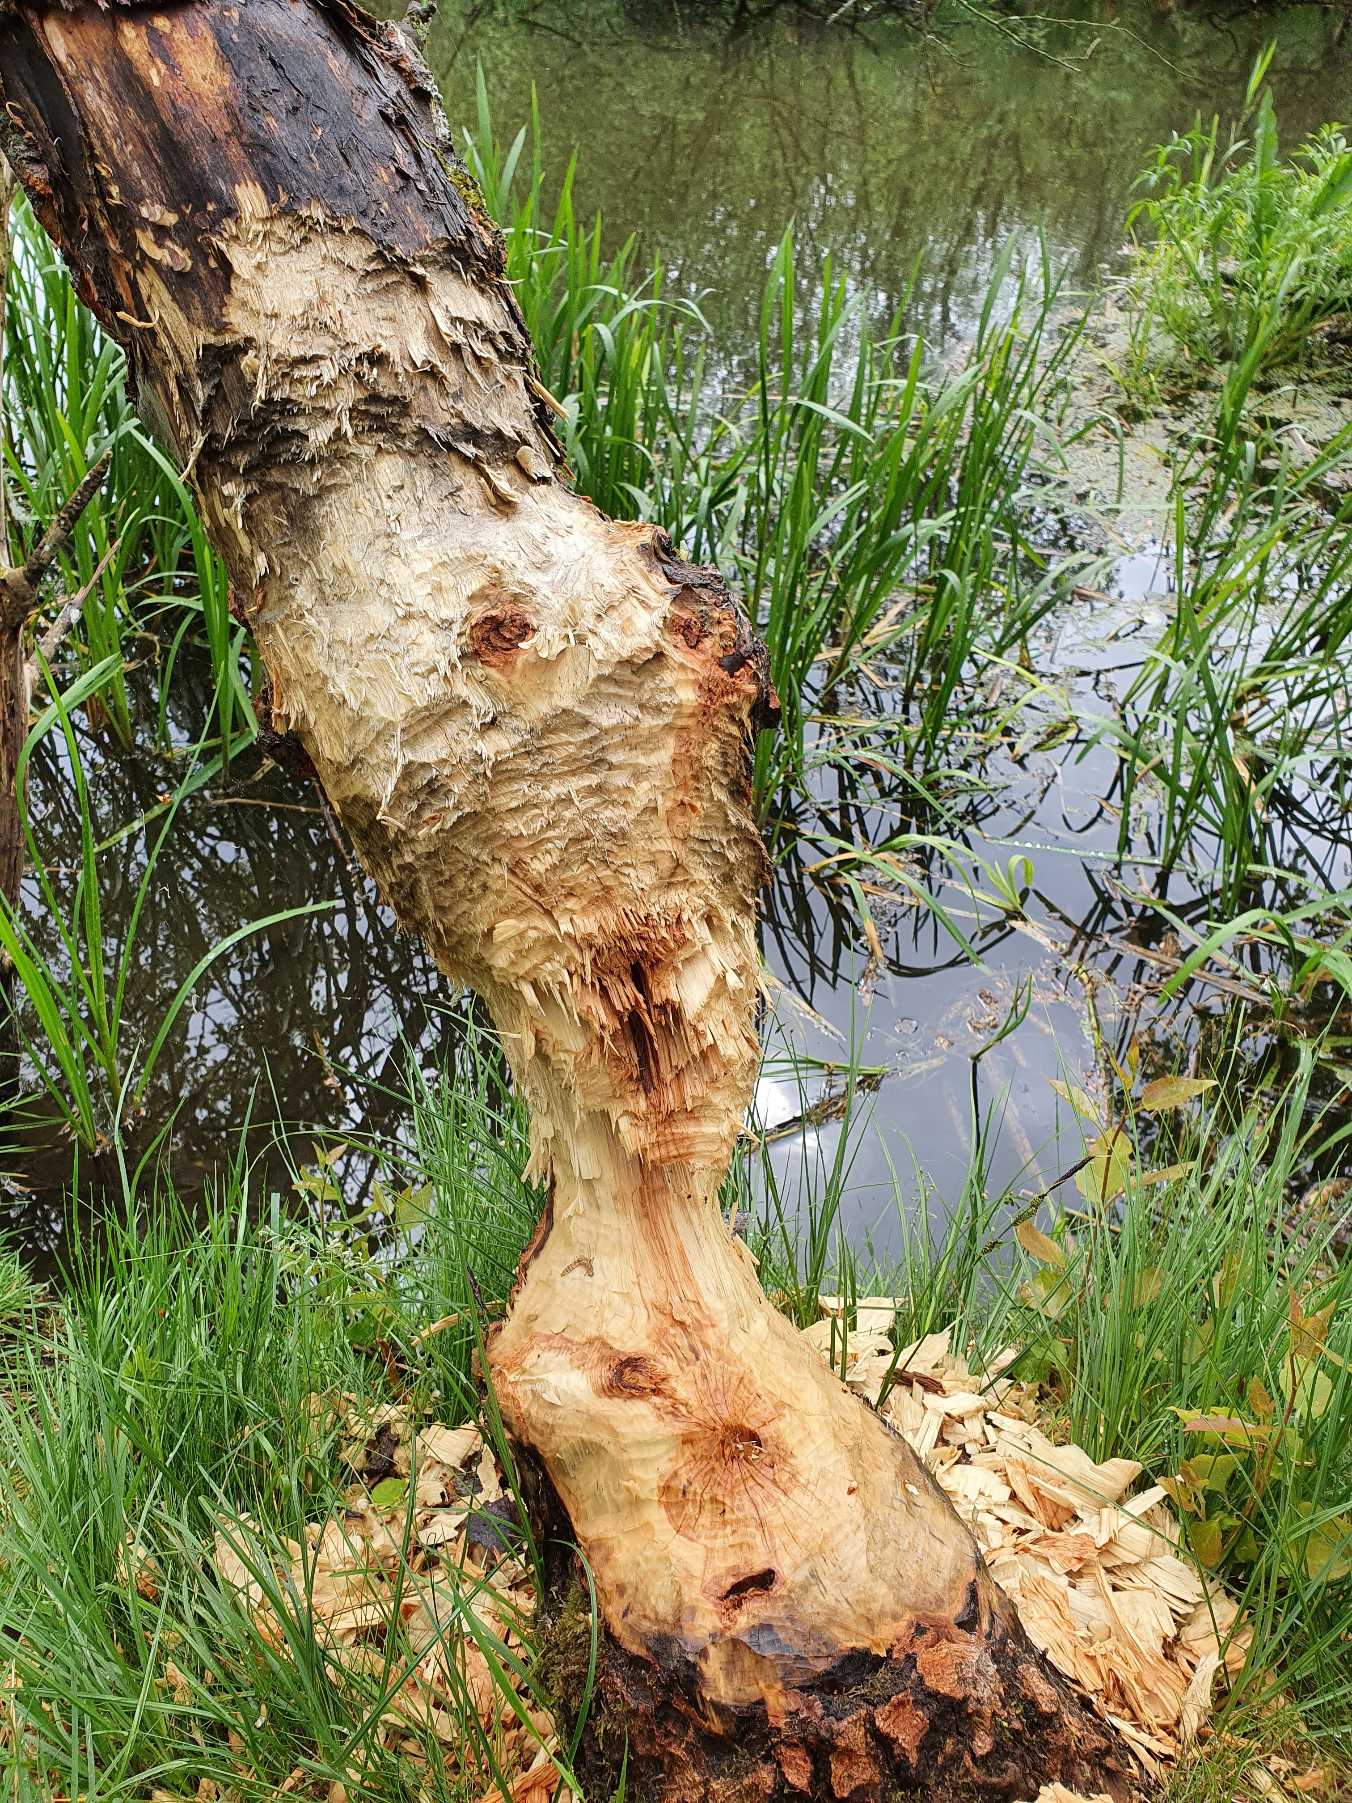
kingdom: Animalia
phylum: Chordata
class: Mammalia
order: Rodentia
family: Castoridae
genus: Castor
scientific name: Castor fiber
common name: Bæver
